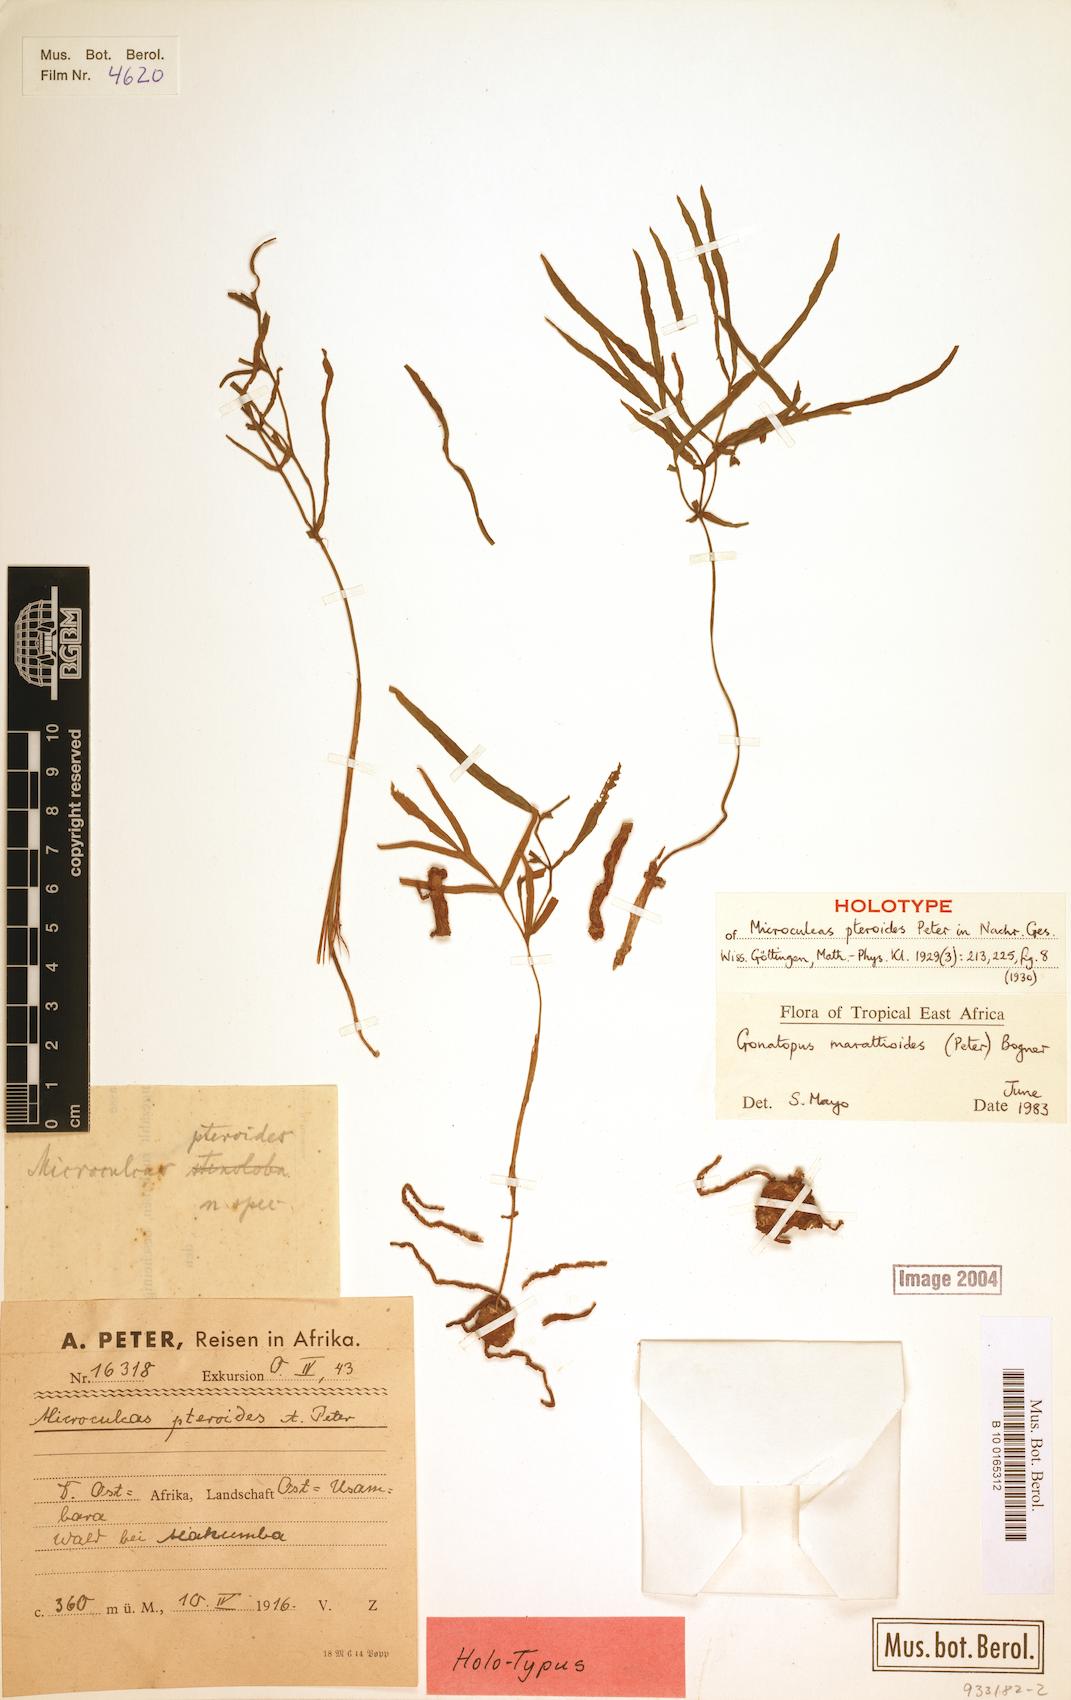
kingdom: Plantae
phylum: Tracheophyta
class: Liliopsida
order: Alismatales
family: Araceae
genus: Gonatopus
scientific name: Gonatopus marattioides
